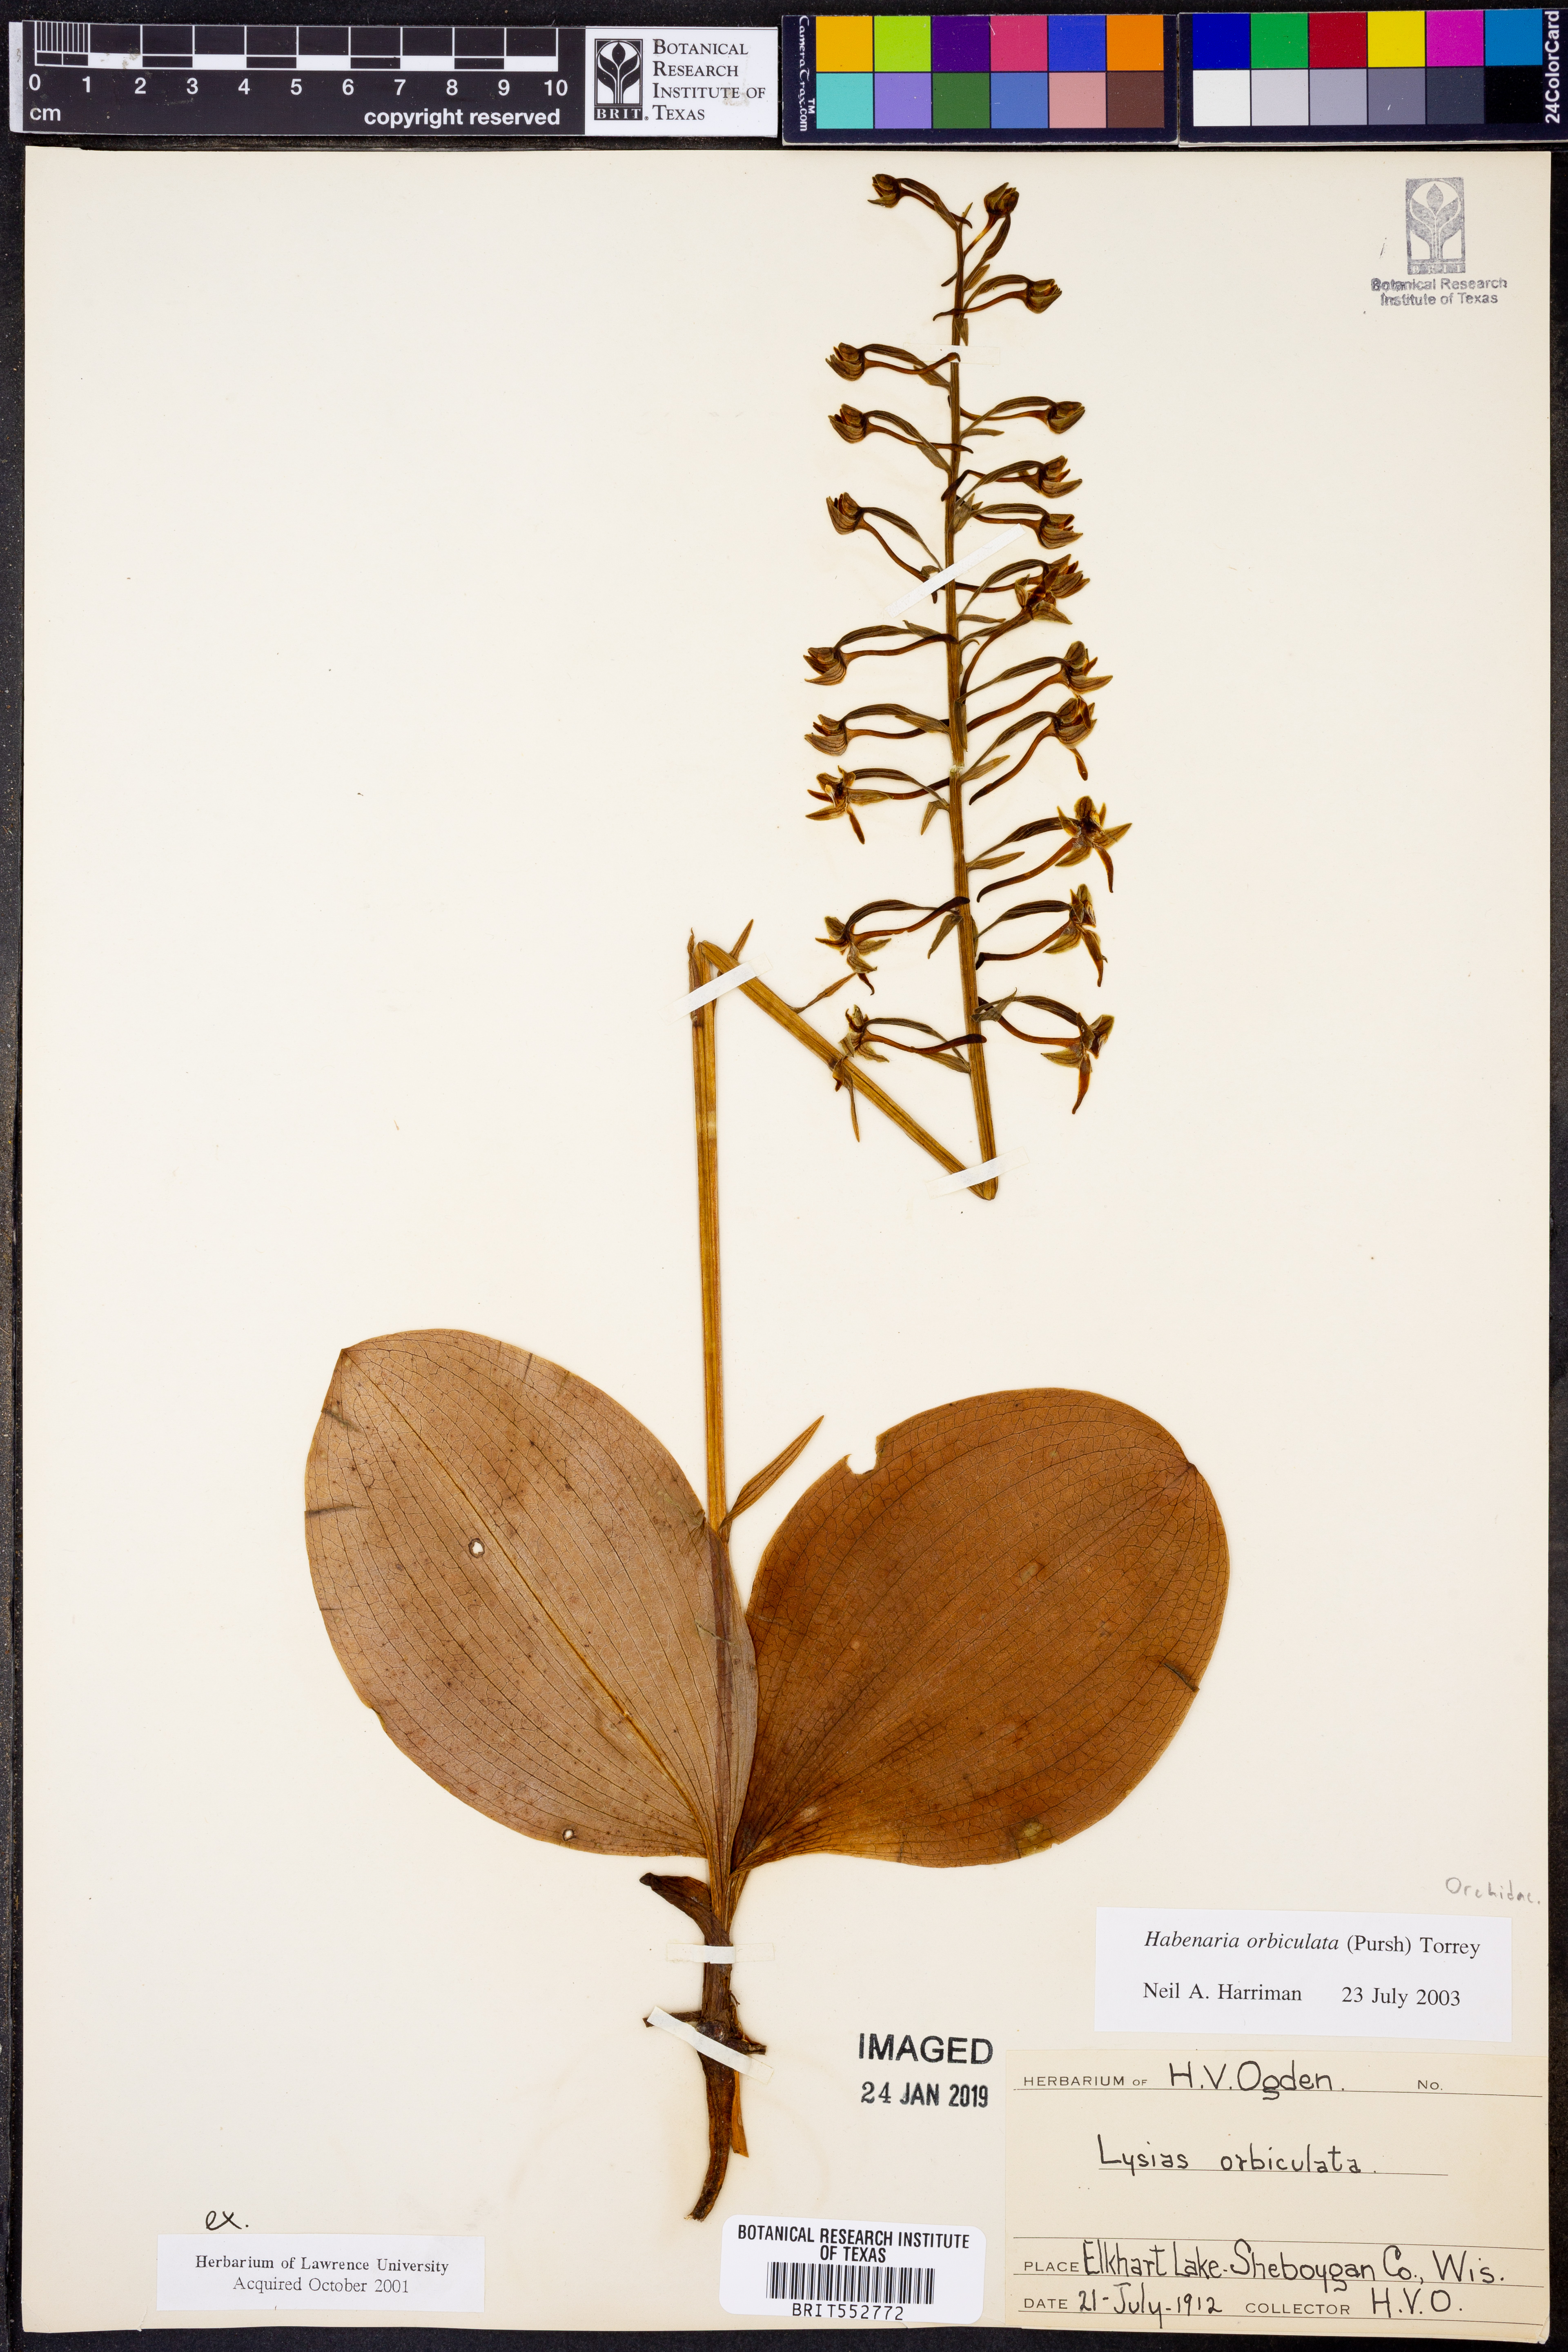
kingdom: Plantae
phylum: Tracheophyta
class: Liliopsida
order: Asparagales
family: Orchidaceae
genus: Platanthera
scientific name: Platanthera orbiculata
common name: Large round-leaved orchid
